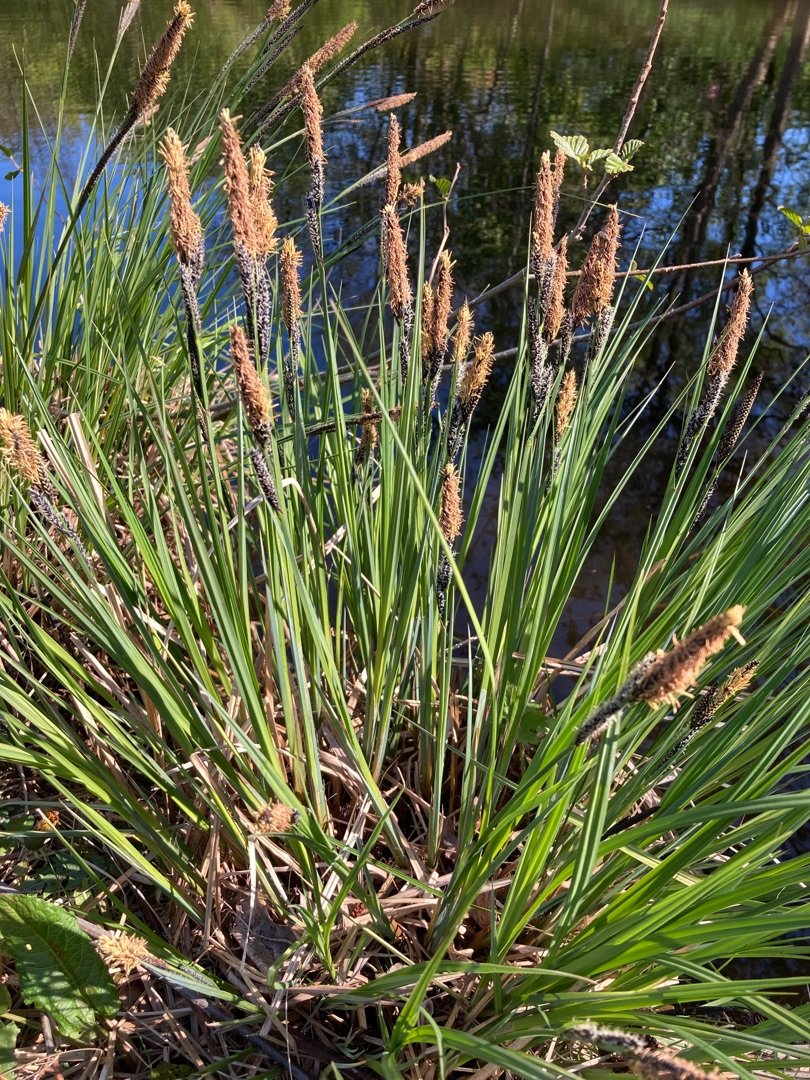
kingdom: Plantae
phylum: Tracheophyta
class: Liliopsida
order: Poales
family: Cyperaceae
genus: Carex
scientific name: Carex elata
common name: Stiv star
